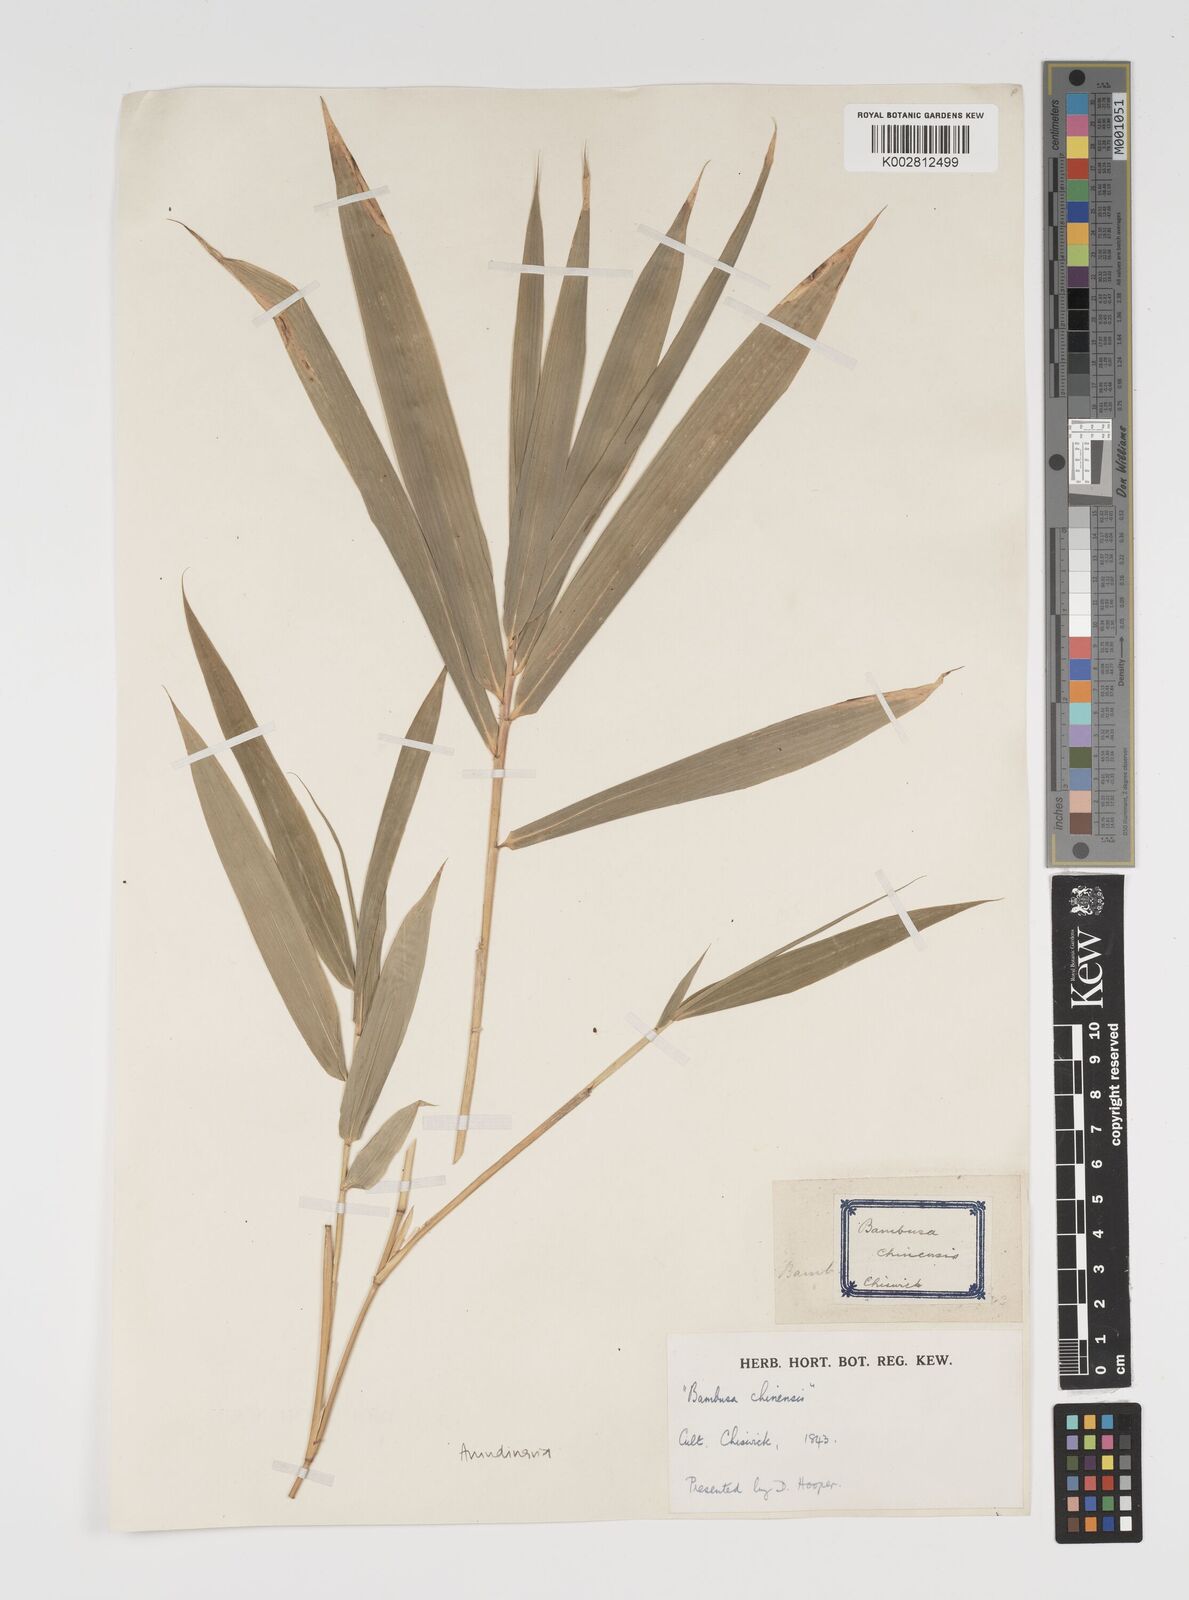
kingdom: Plantae
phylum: Tracheophyta
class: Liliopsida
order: Poales
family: Poaceae
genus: Arundinaria
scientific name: Arundinaria
